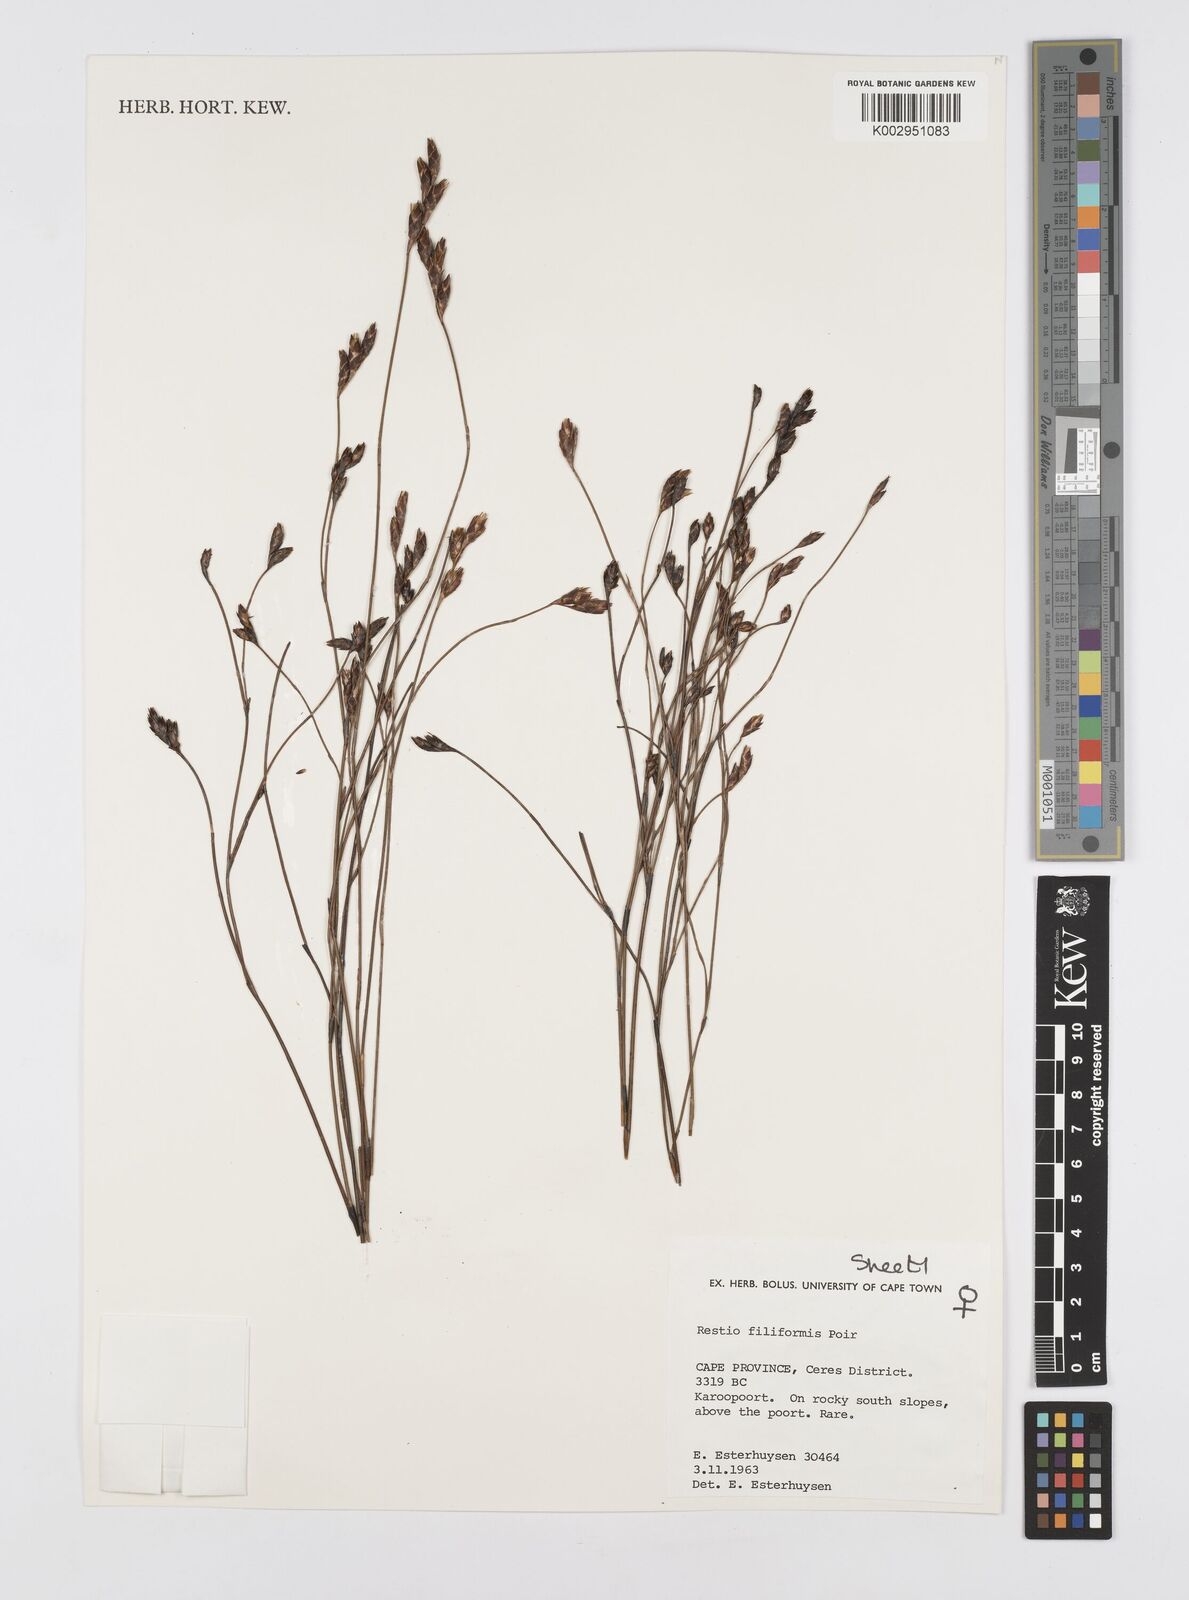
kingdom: Plantae
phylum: Tracheophyta
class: Liliopsida
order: Poales
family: Restionaceae
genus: Restio
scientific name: Restio filiformis
